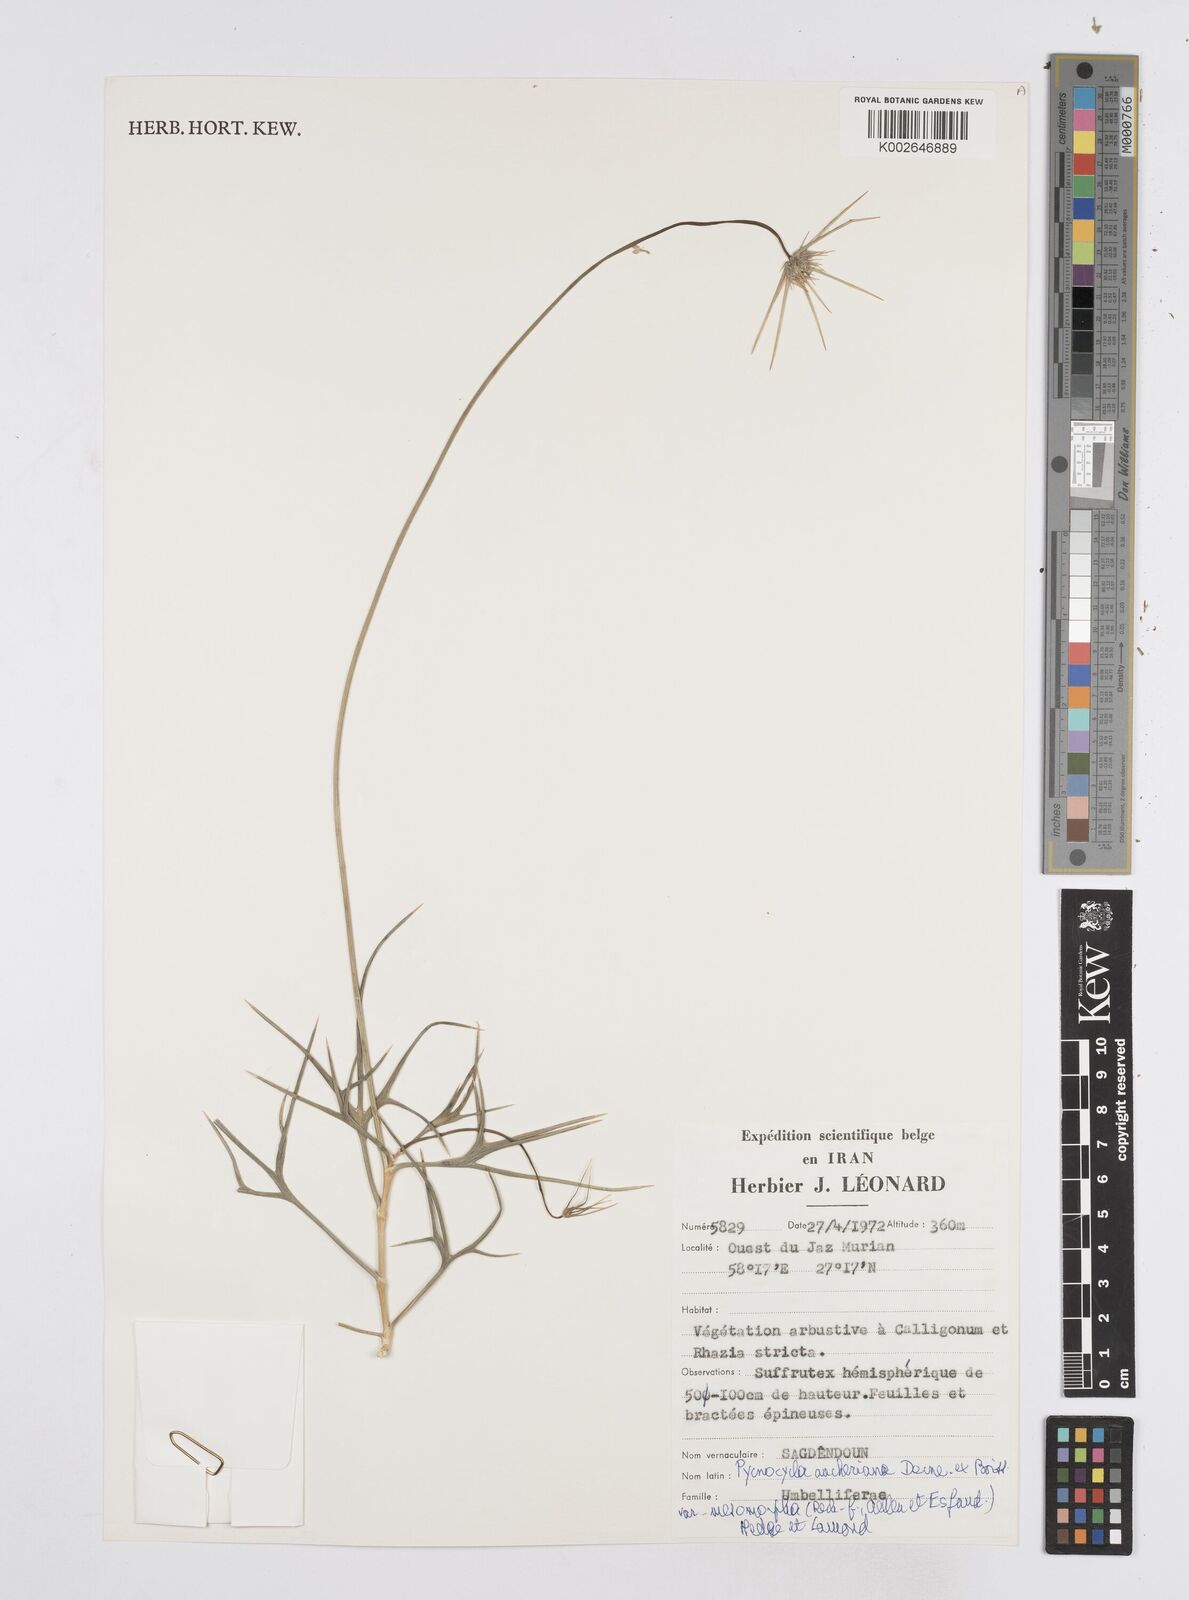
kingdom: Plantae
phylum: Tracheophyta
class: Magnoliopsida
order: Apiales
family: Apiaceae
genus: Pycnocycla
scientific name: Pycnocycla aucheriana
